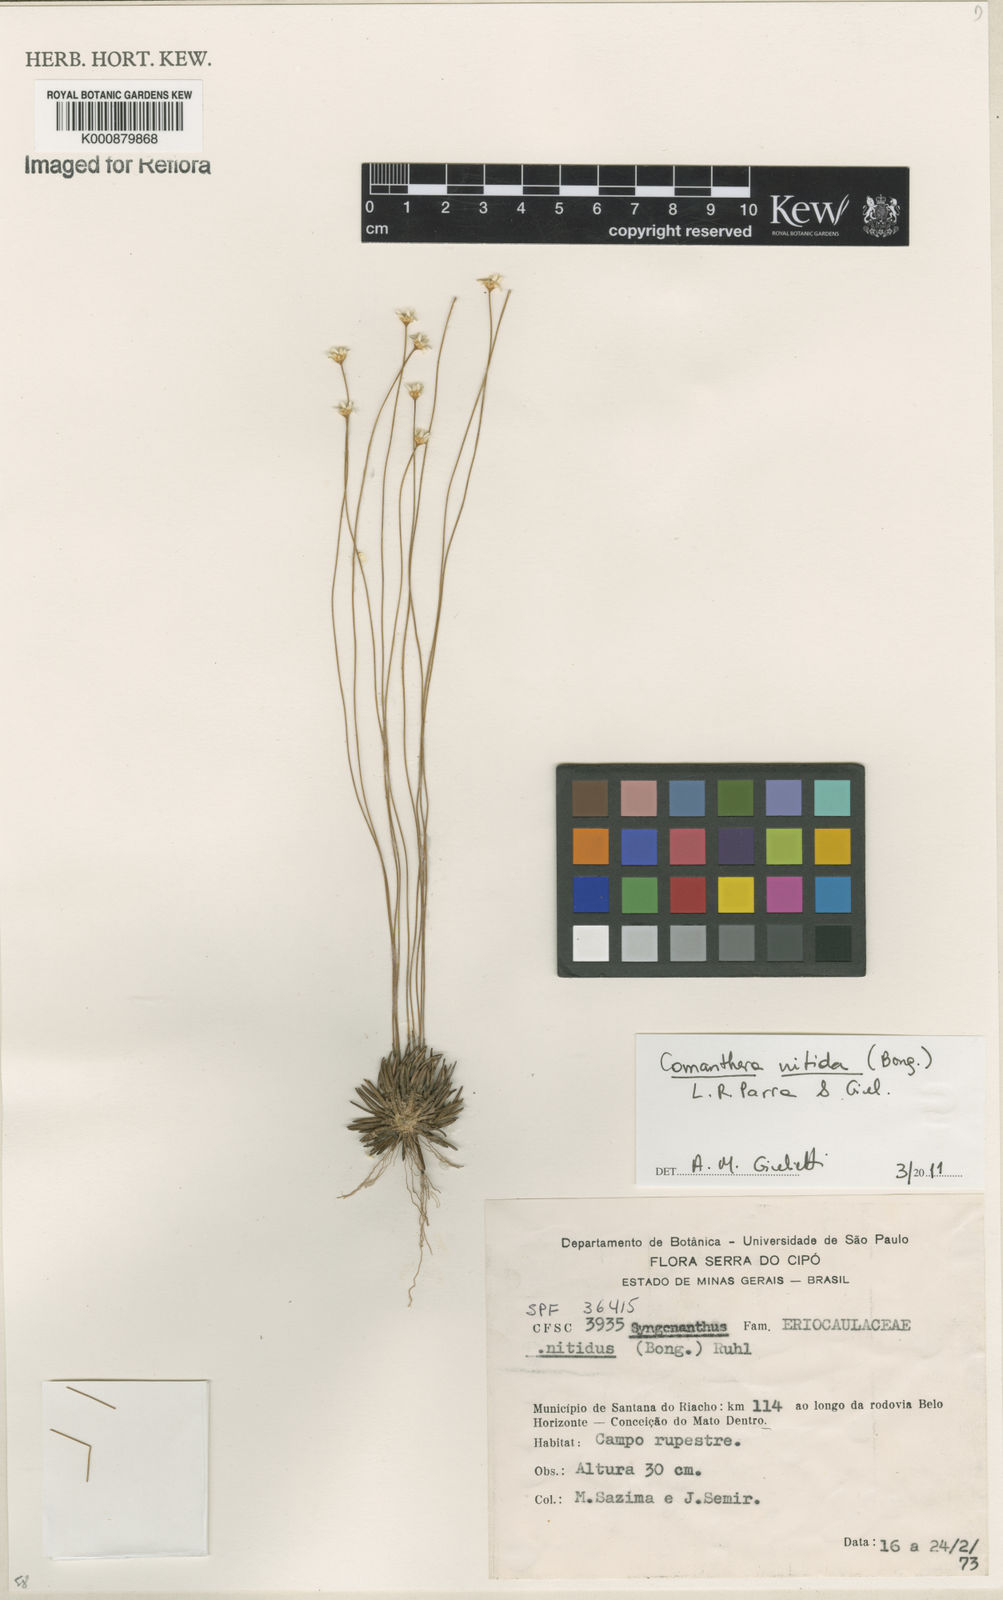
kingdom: Plantae
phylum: Tracheophyta
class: Liliopsida
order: Poales
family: Eriocaulaceae
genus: Comanthera
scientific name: Comanthera nitida
